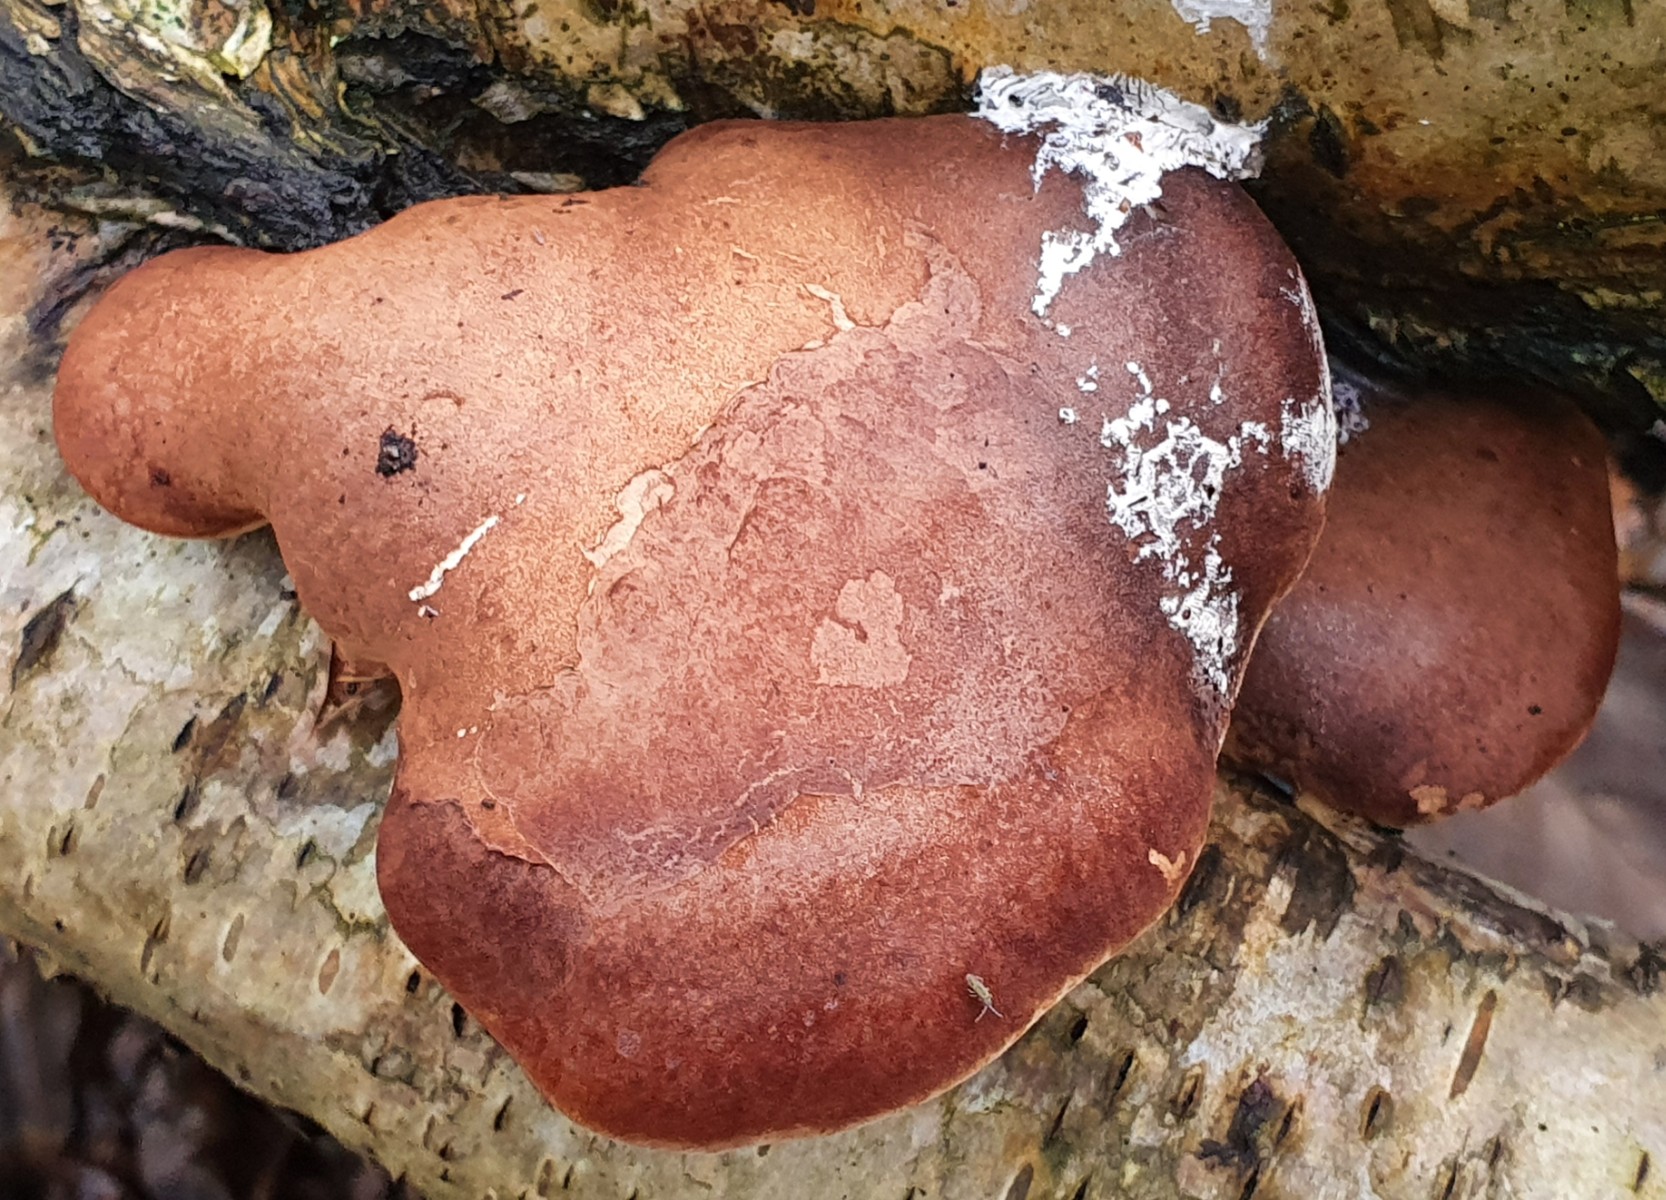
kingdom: Fungi
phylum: Basidiomycota
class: Agaricomycetes
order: Polyporales
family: Fomitopsidaceae
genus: Fomitopsis
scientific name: Fomitopsis betulina
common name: birkeporesvamp
